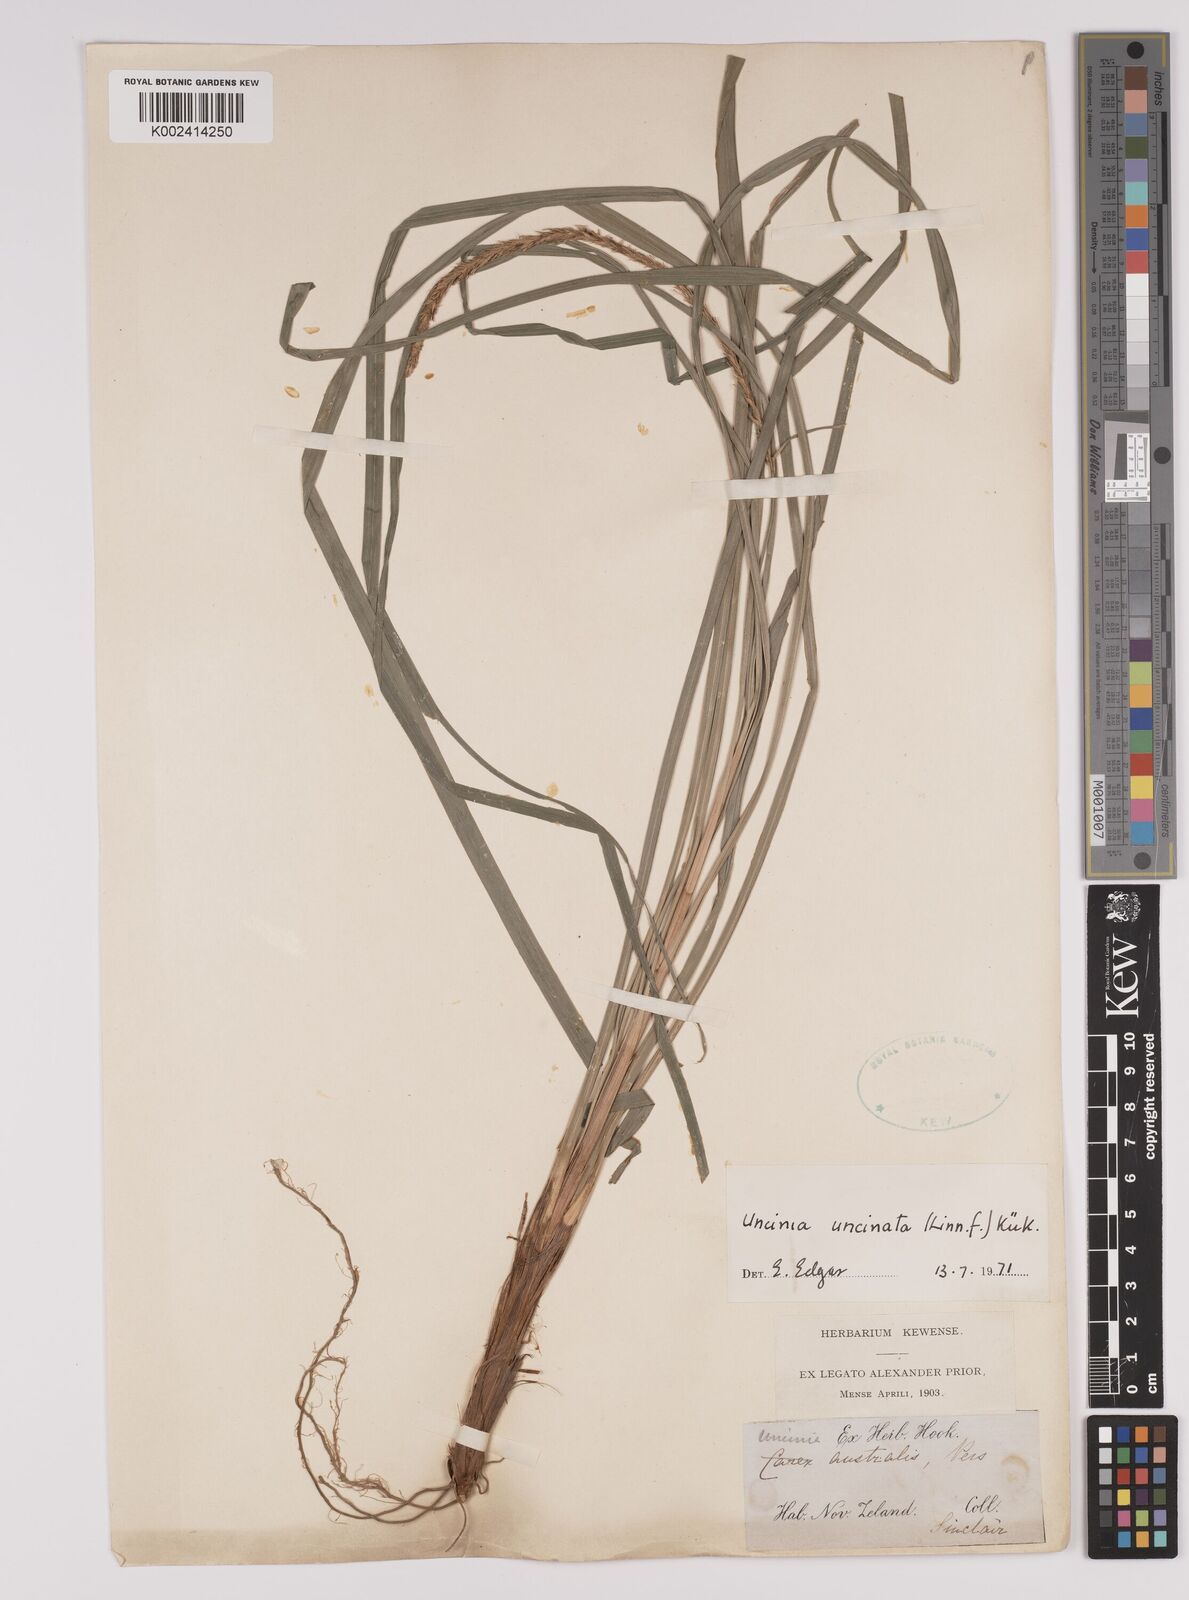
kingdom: Plantae
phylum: Tracheophyta
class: Liliopsida
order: Poales
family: Cyperaceae
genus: Carex
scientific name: Carex uncinata
